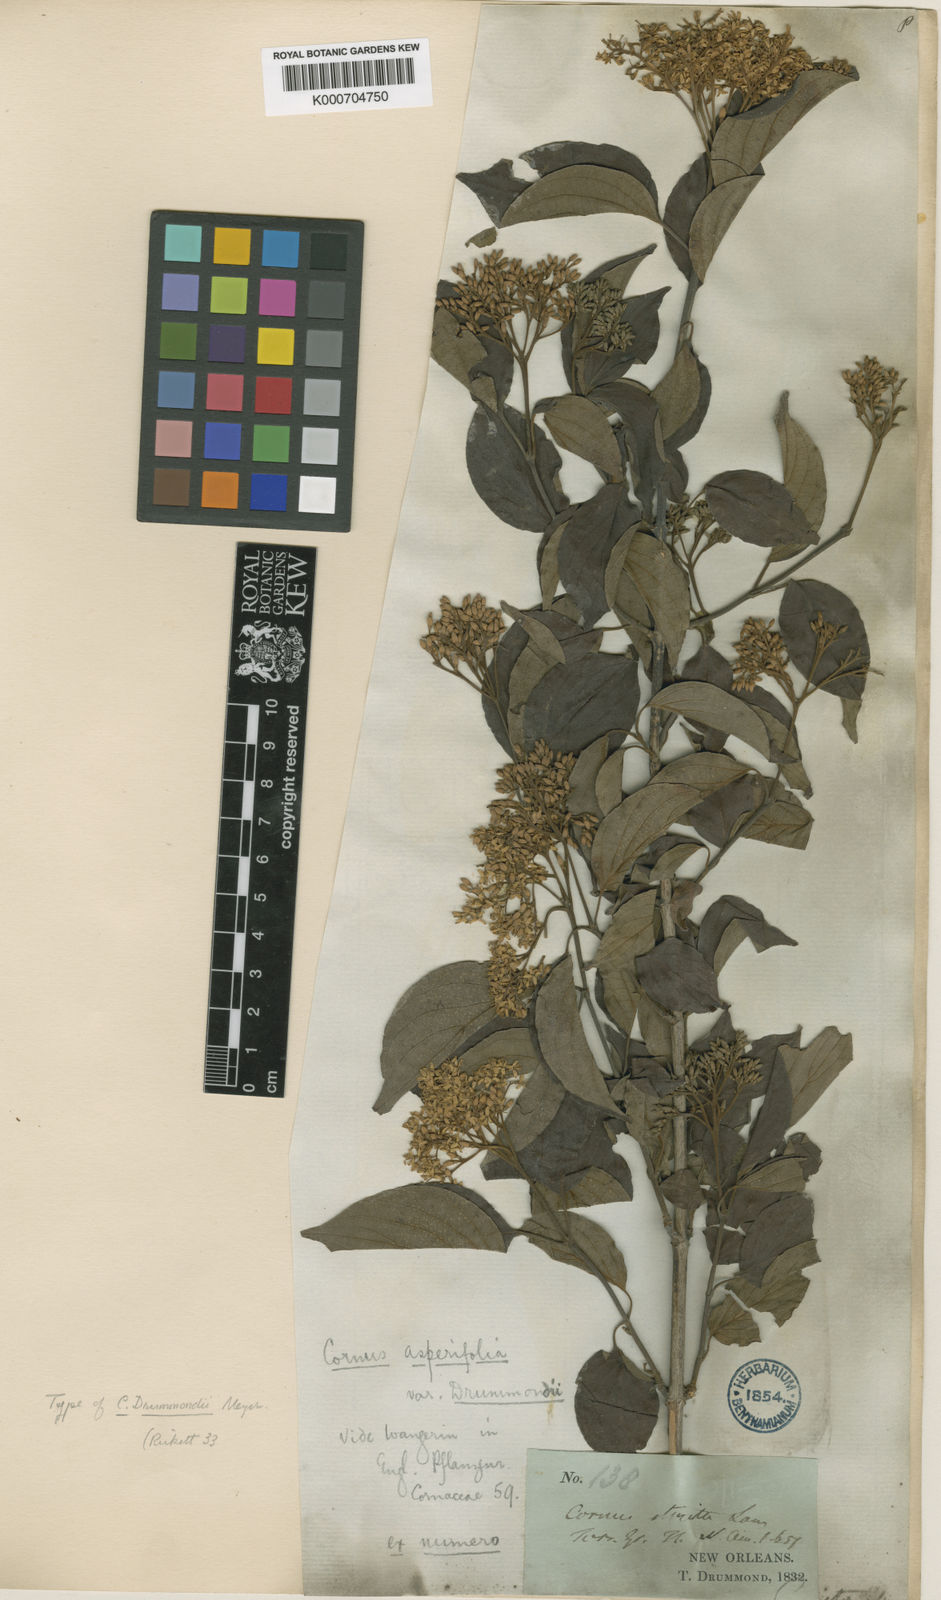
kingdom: Plantae
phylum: Tracheophyta
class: Magnoliopsida
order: Cornales
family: Cornaceae
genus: Cornus
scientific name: Cornus drummondii
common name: Rough-leaf dogwood
